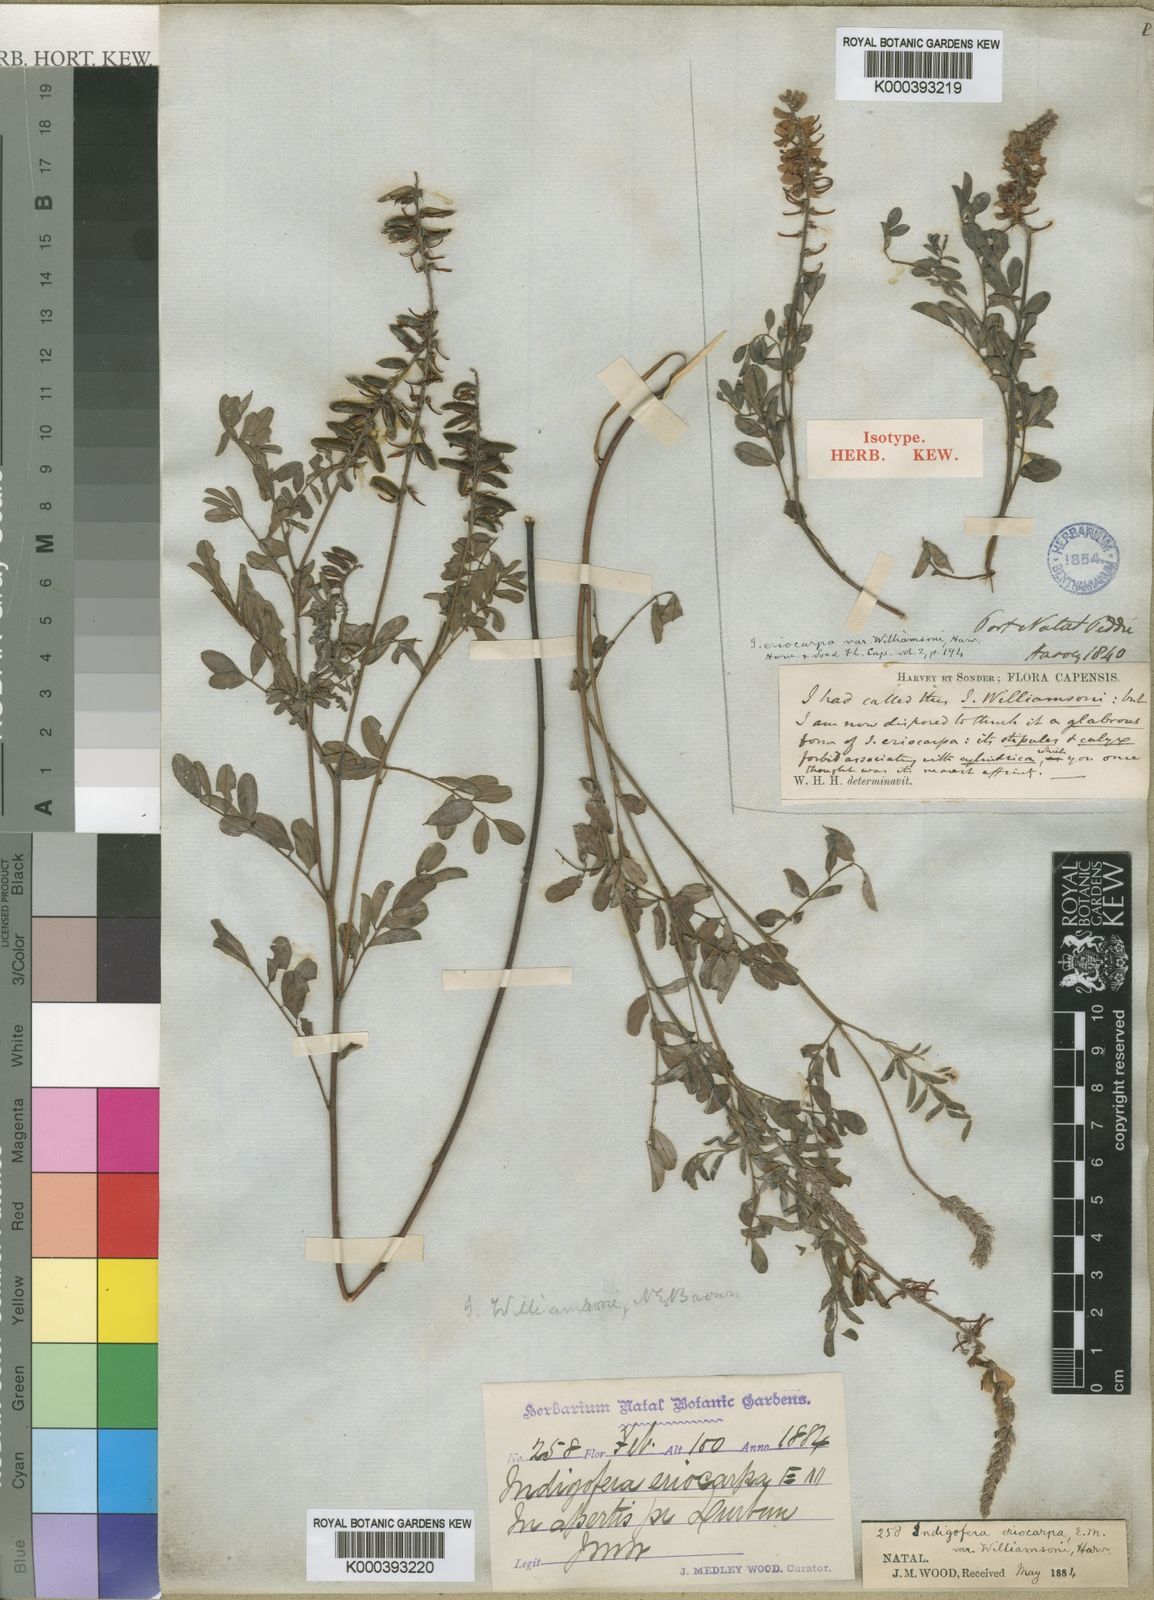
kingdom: Plantae
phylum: Tracheophyta
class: Magnoliopsida
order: Fabales
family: Fabaceae
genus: Indigofera
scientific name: Indigofera williamsonii
